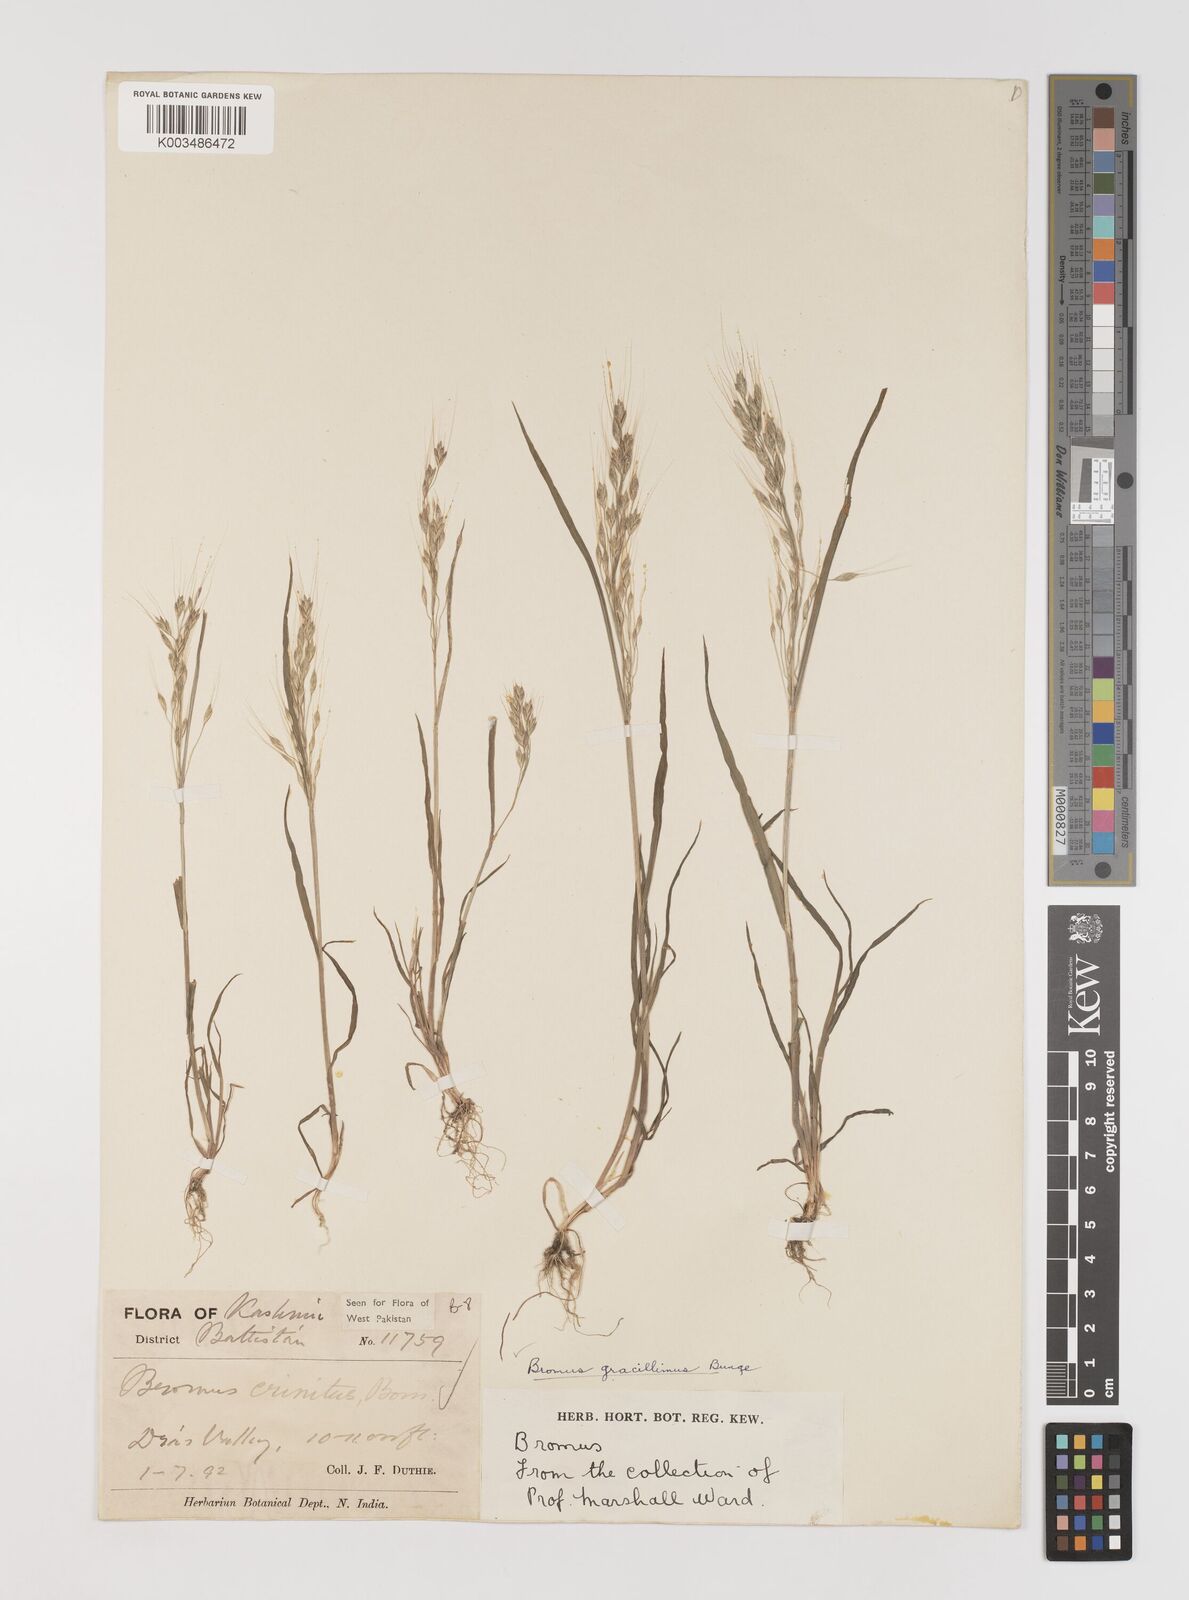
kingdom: Plantae
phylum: Tracheophyta
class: Liliopsida
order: Poales
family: Poaceae
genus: Bromus
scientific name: Bromus gracillimus
